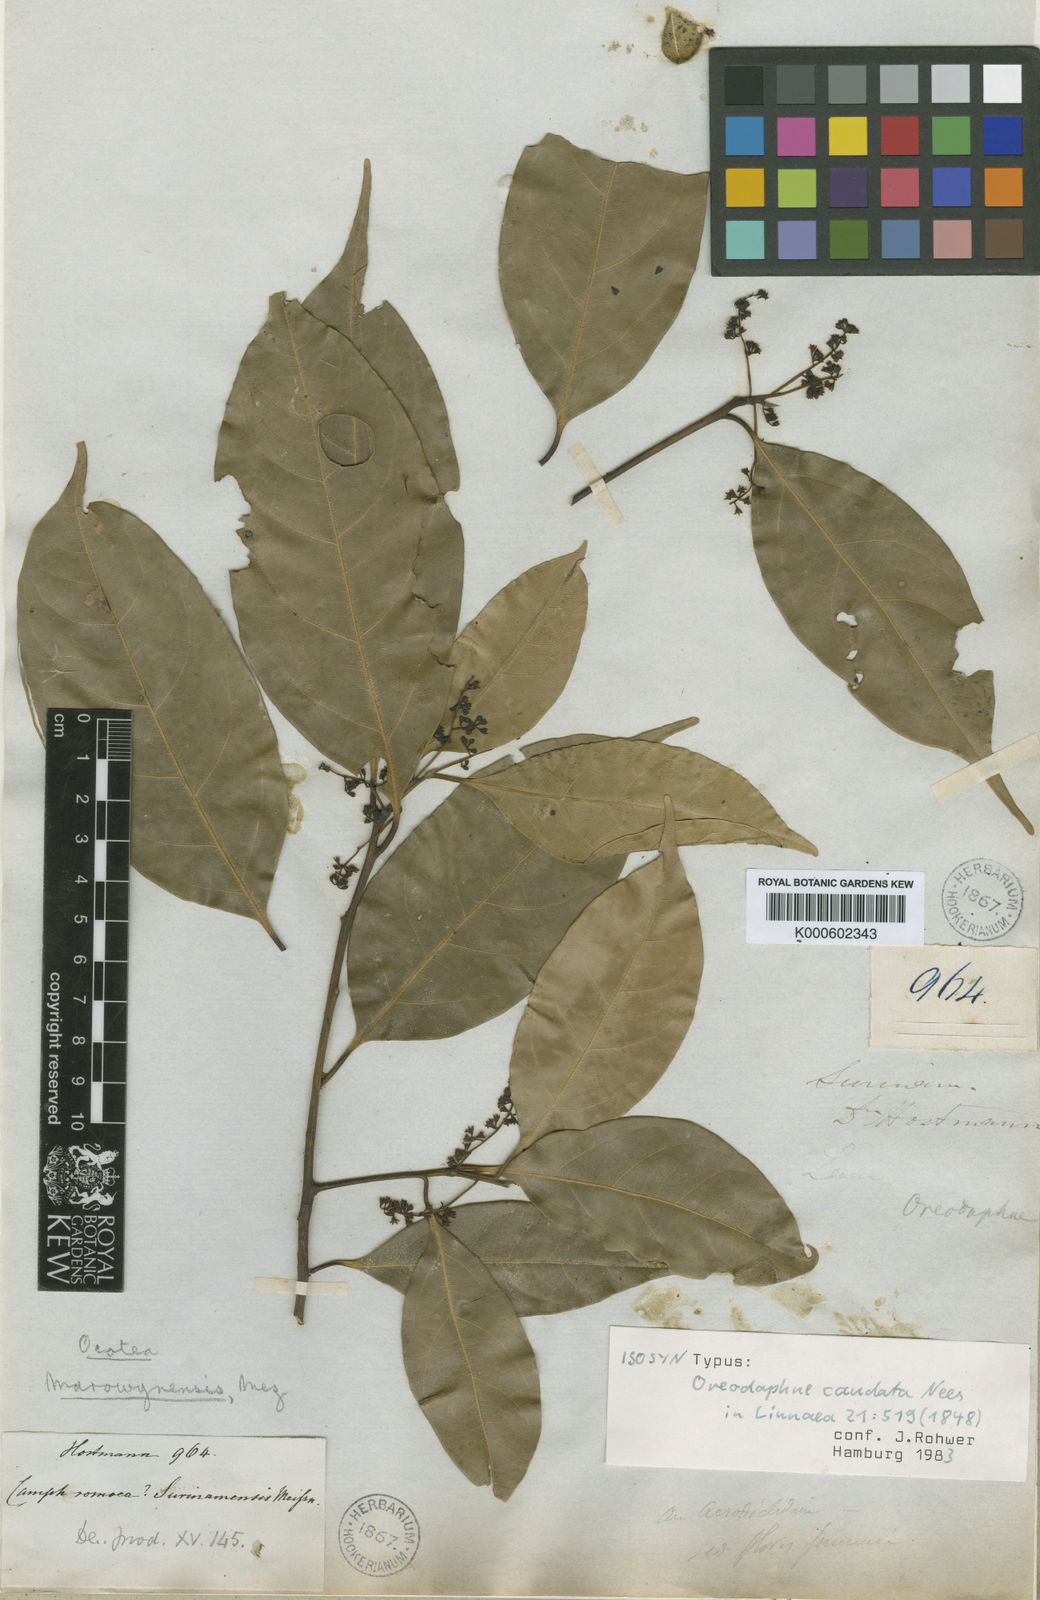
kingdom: Plantae
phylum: Tracheophyta
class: Magnoliopsida
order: Laurales
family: Lauraceae
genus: Ocotea
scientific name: Ocotea leptobotra
